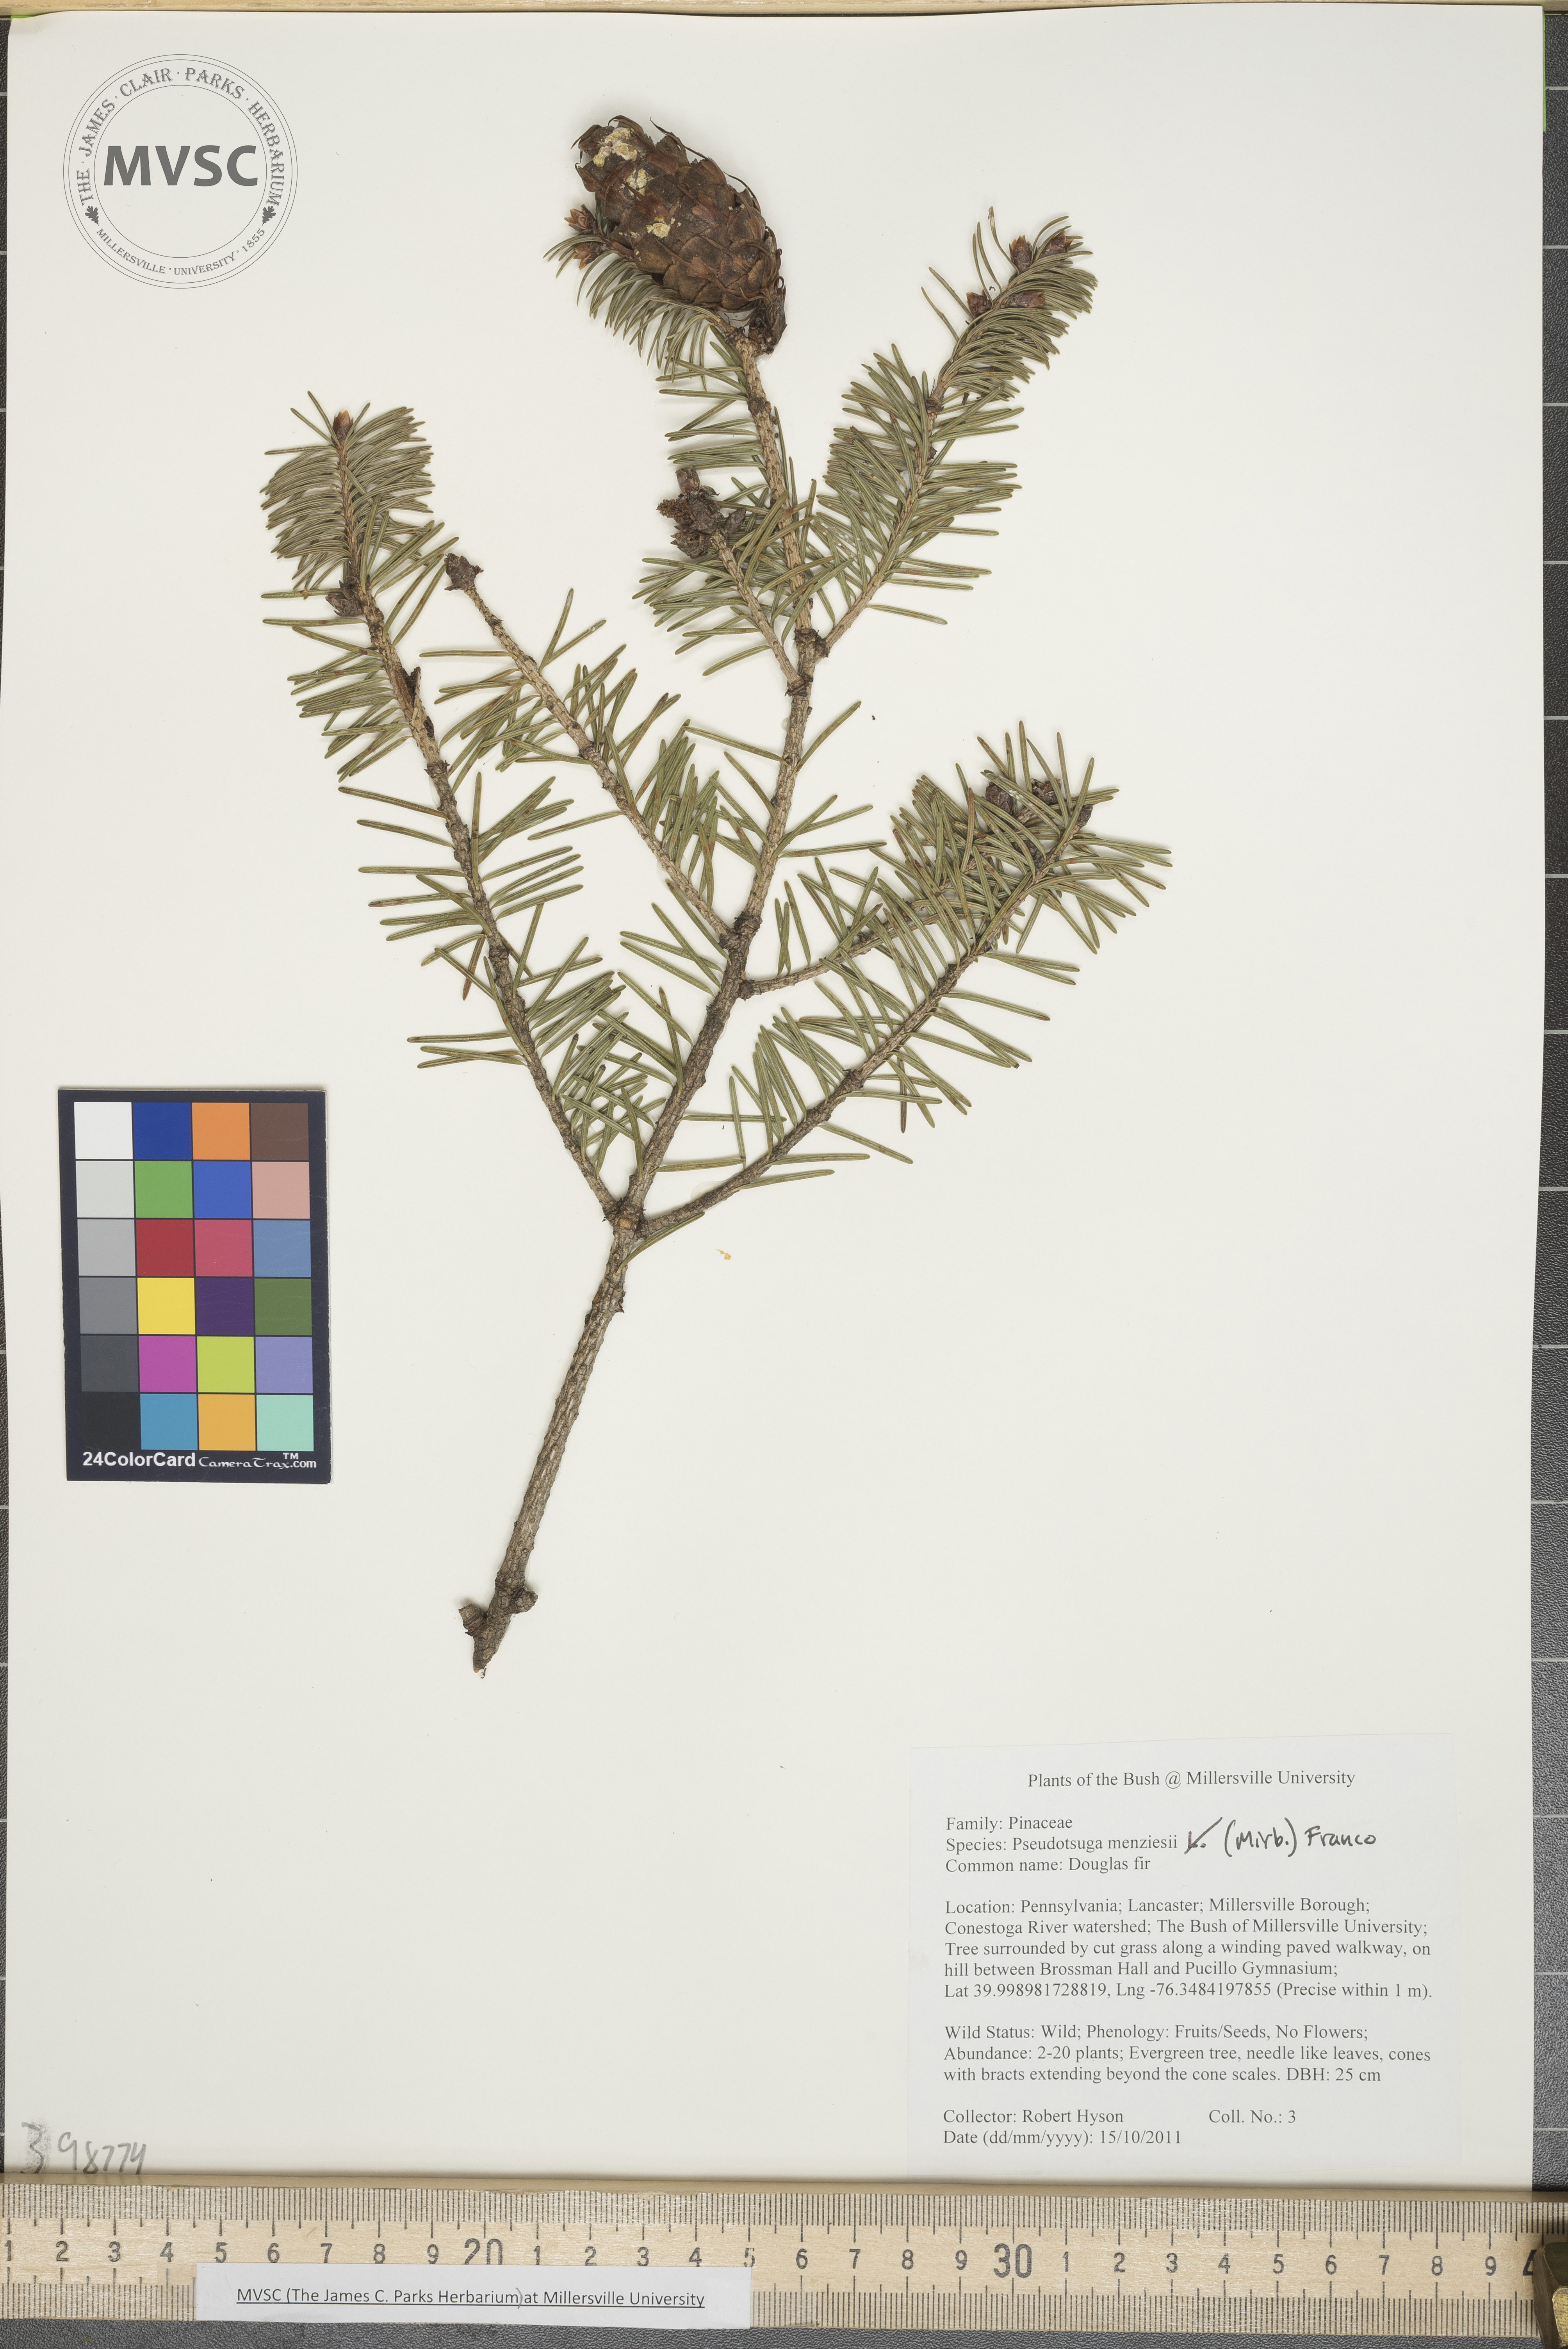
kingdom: Plantae
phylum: Tracheophyta
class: Pinopsida
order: Pinales
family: Pinaceae
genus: Pseudotsuga
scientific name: Pseudotsuga menziesii
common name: Douglas-fir
